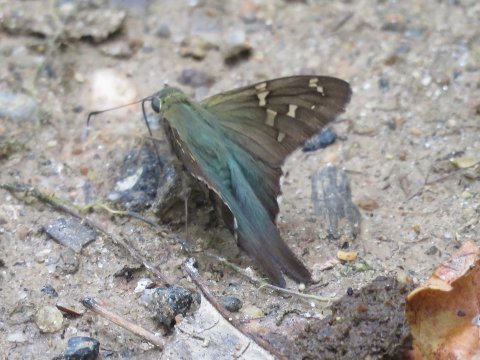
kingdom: Animalia
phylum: Arthropoda
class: Insecta
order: Lepidoptera
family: Hesperiidae
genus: Urbanus
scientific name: Urbanus proteus
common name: Long-tailed Skipper
